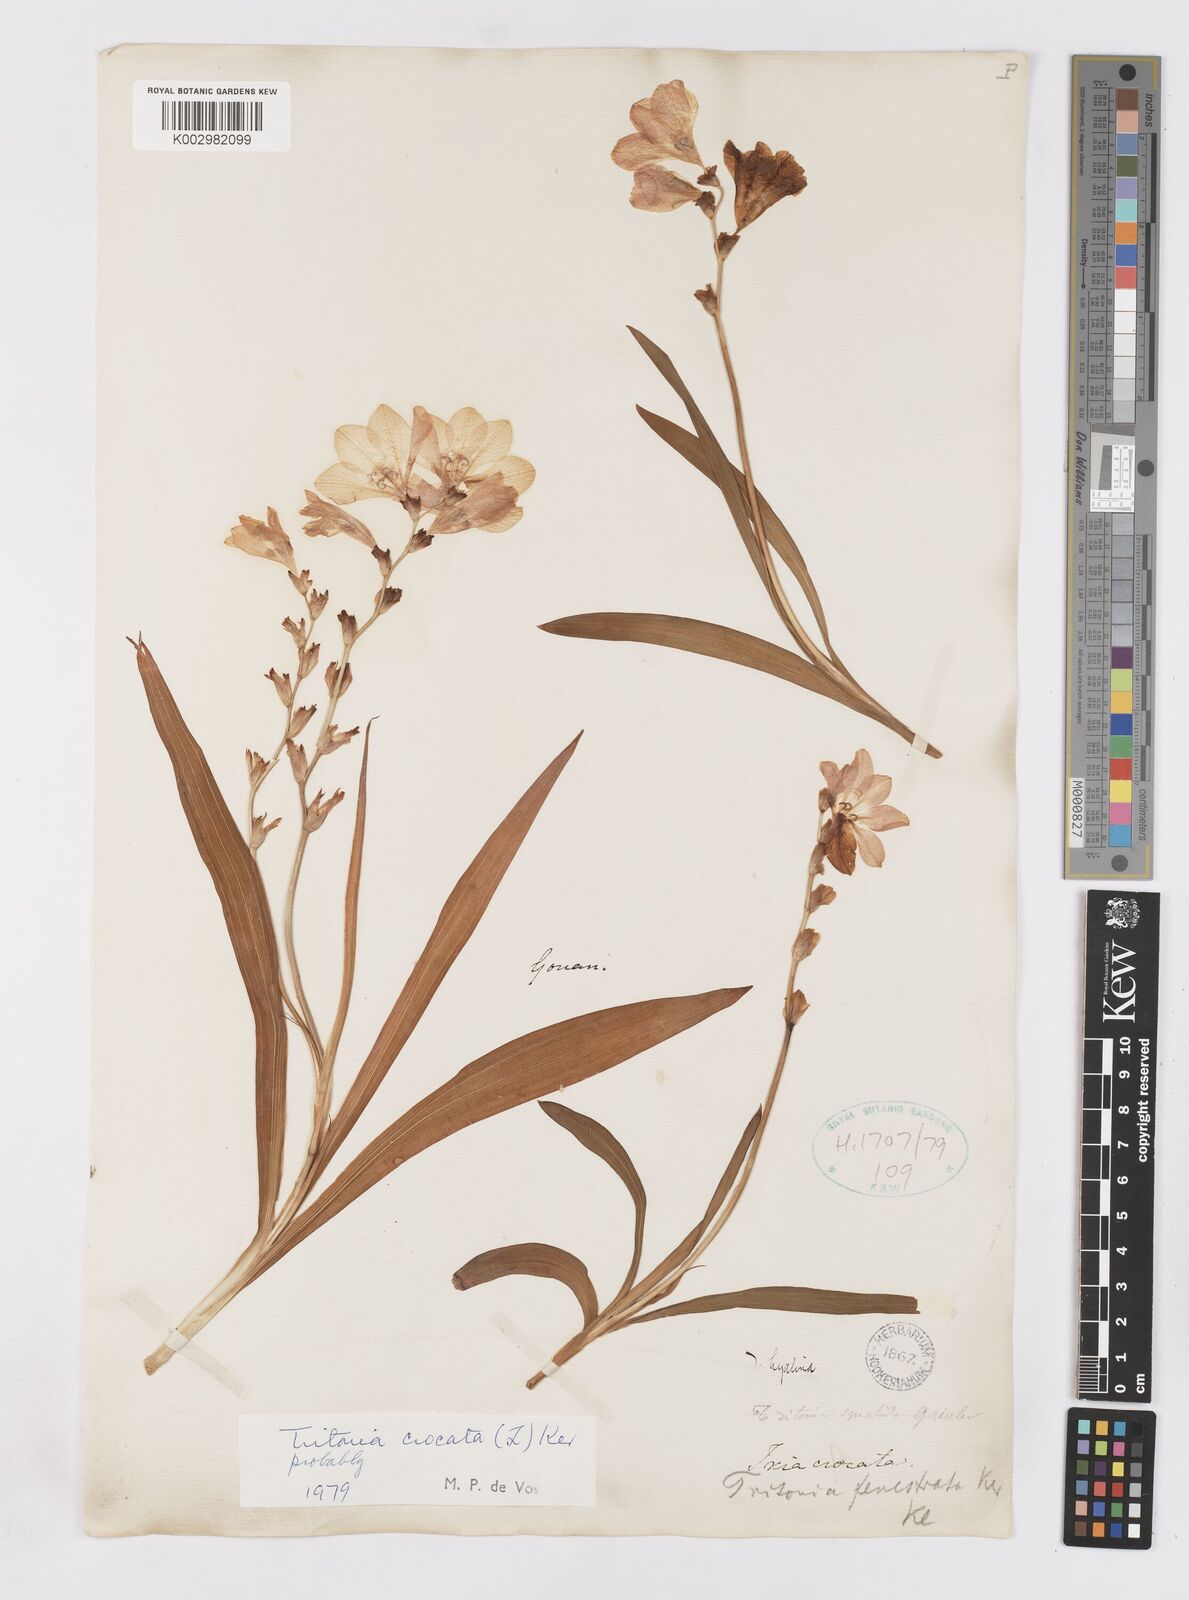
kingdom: Plantae
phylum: Tracheophyta
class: Liliopsida
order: Asparagales
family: Iridaceae
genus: Tritonia
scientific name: Tritonia crocata
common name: Flame-freesia
